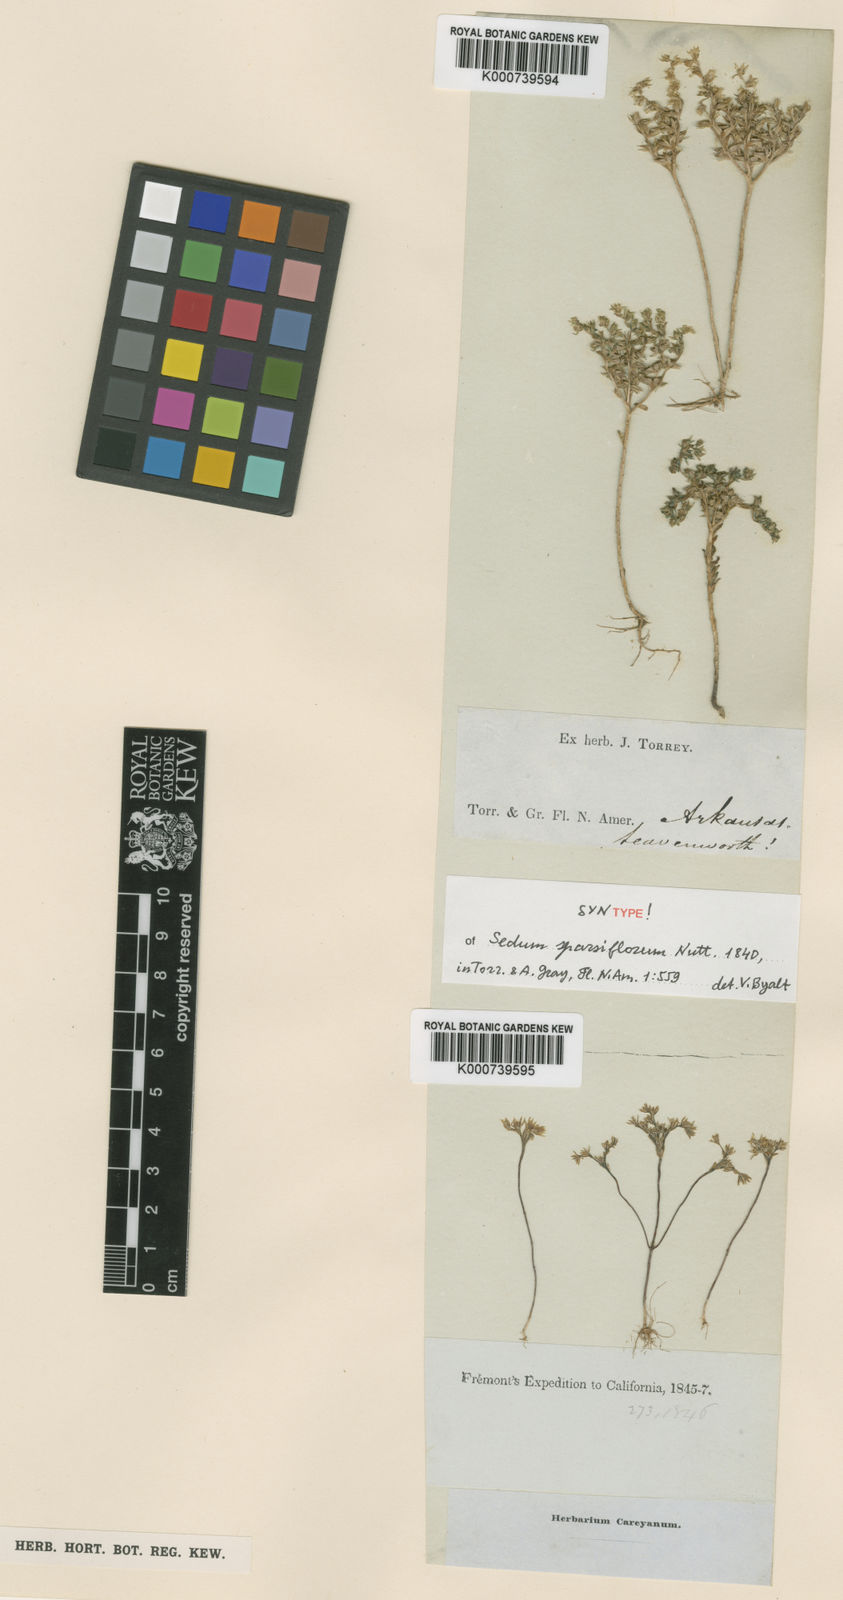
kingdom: Plantae
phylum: Tracheophyta
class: Magnoliopsida
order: Saxifragales
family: Crassulaceae
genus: Sedum
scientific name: Sedum
